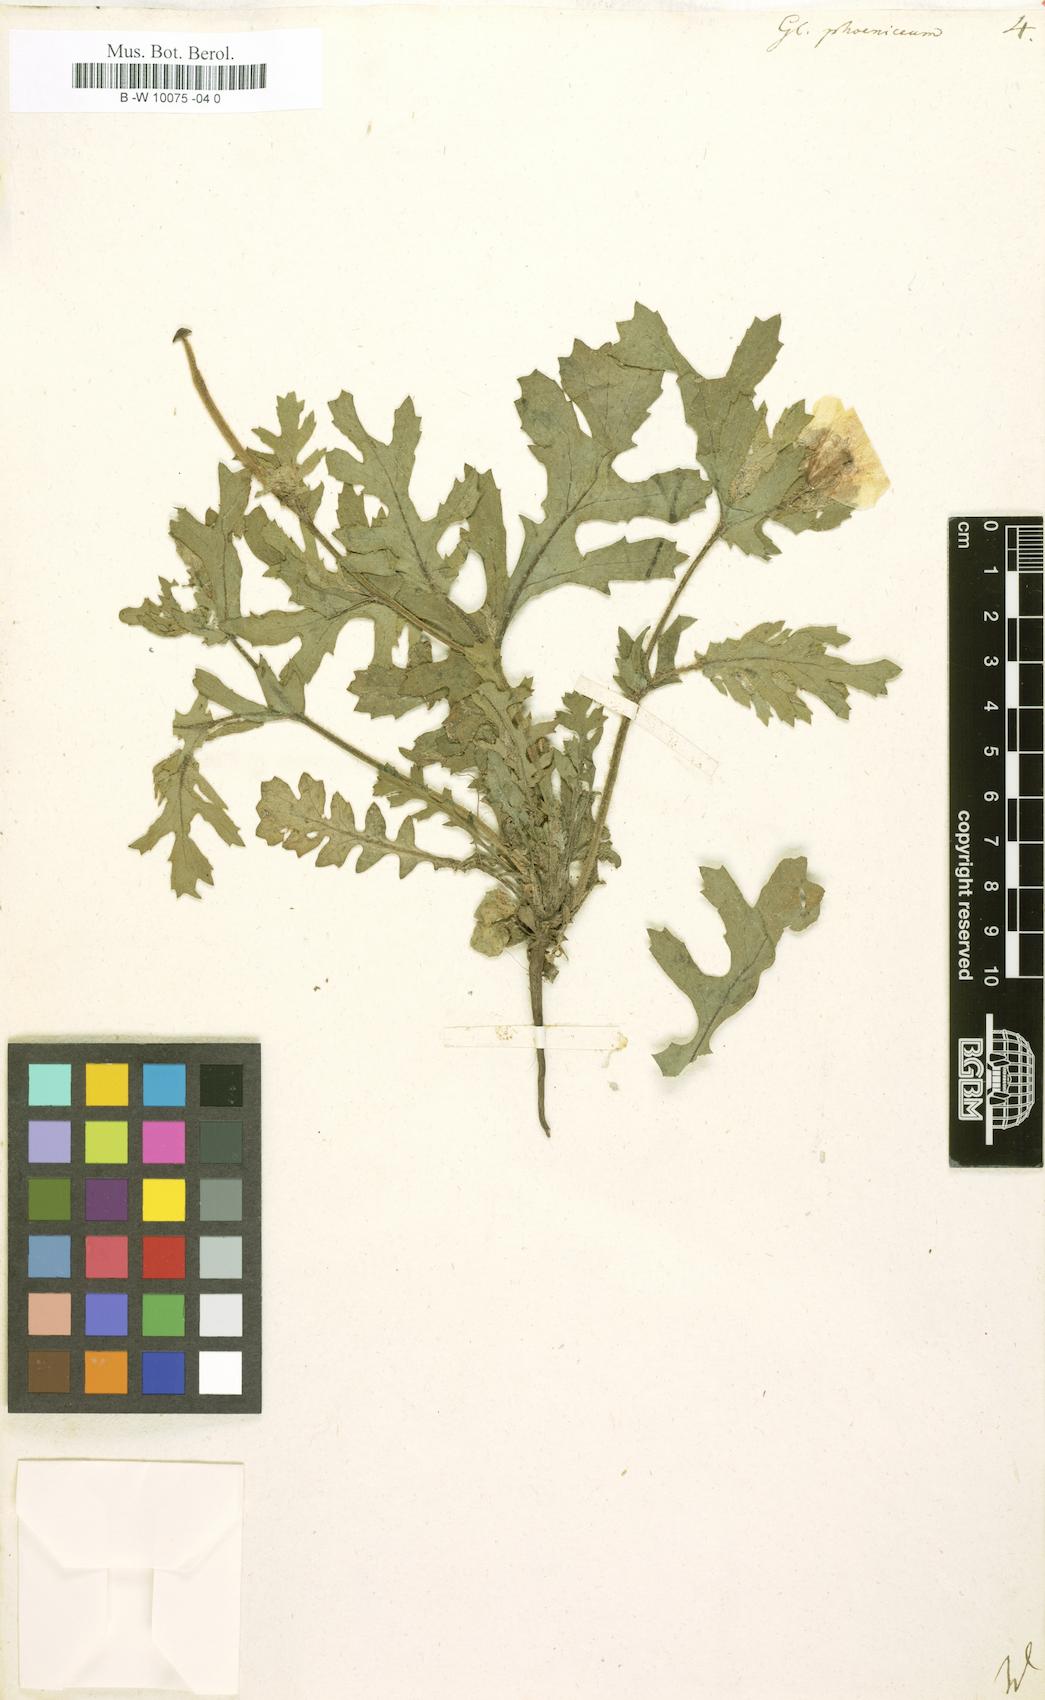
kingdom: Plantae
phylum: Tracheophyta
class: Magnoliopsida
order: Ranunculales
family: Papaveraceae
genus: Glaucium
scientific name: Glaucium corniculatum
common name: Red horned-poppy
